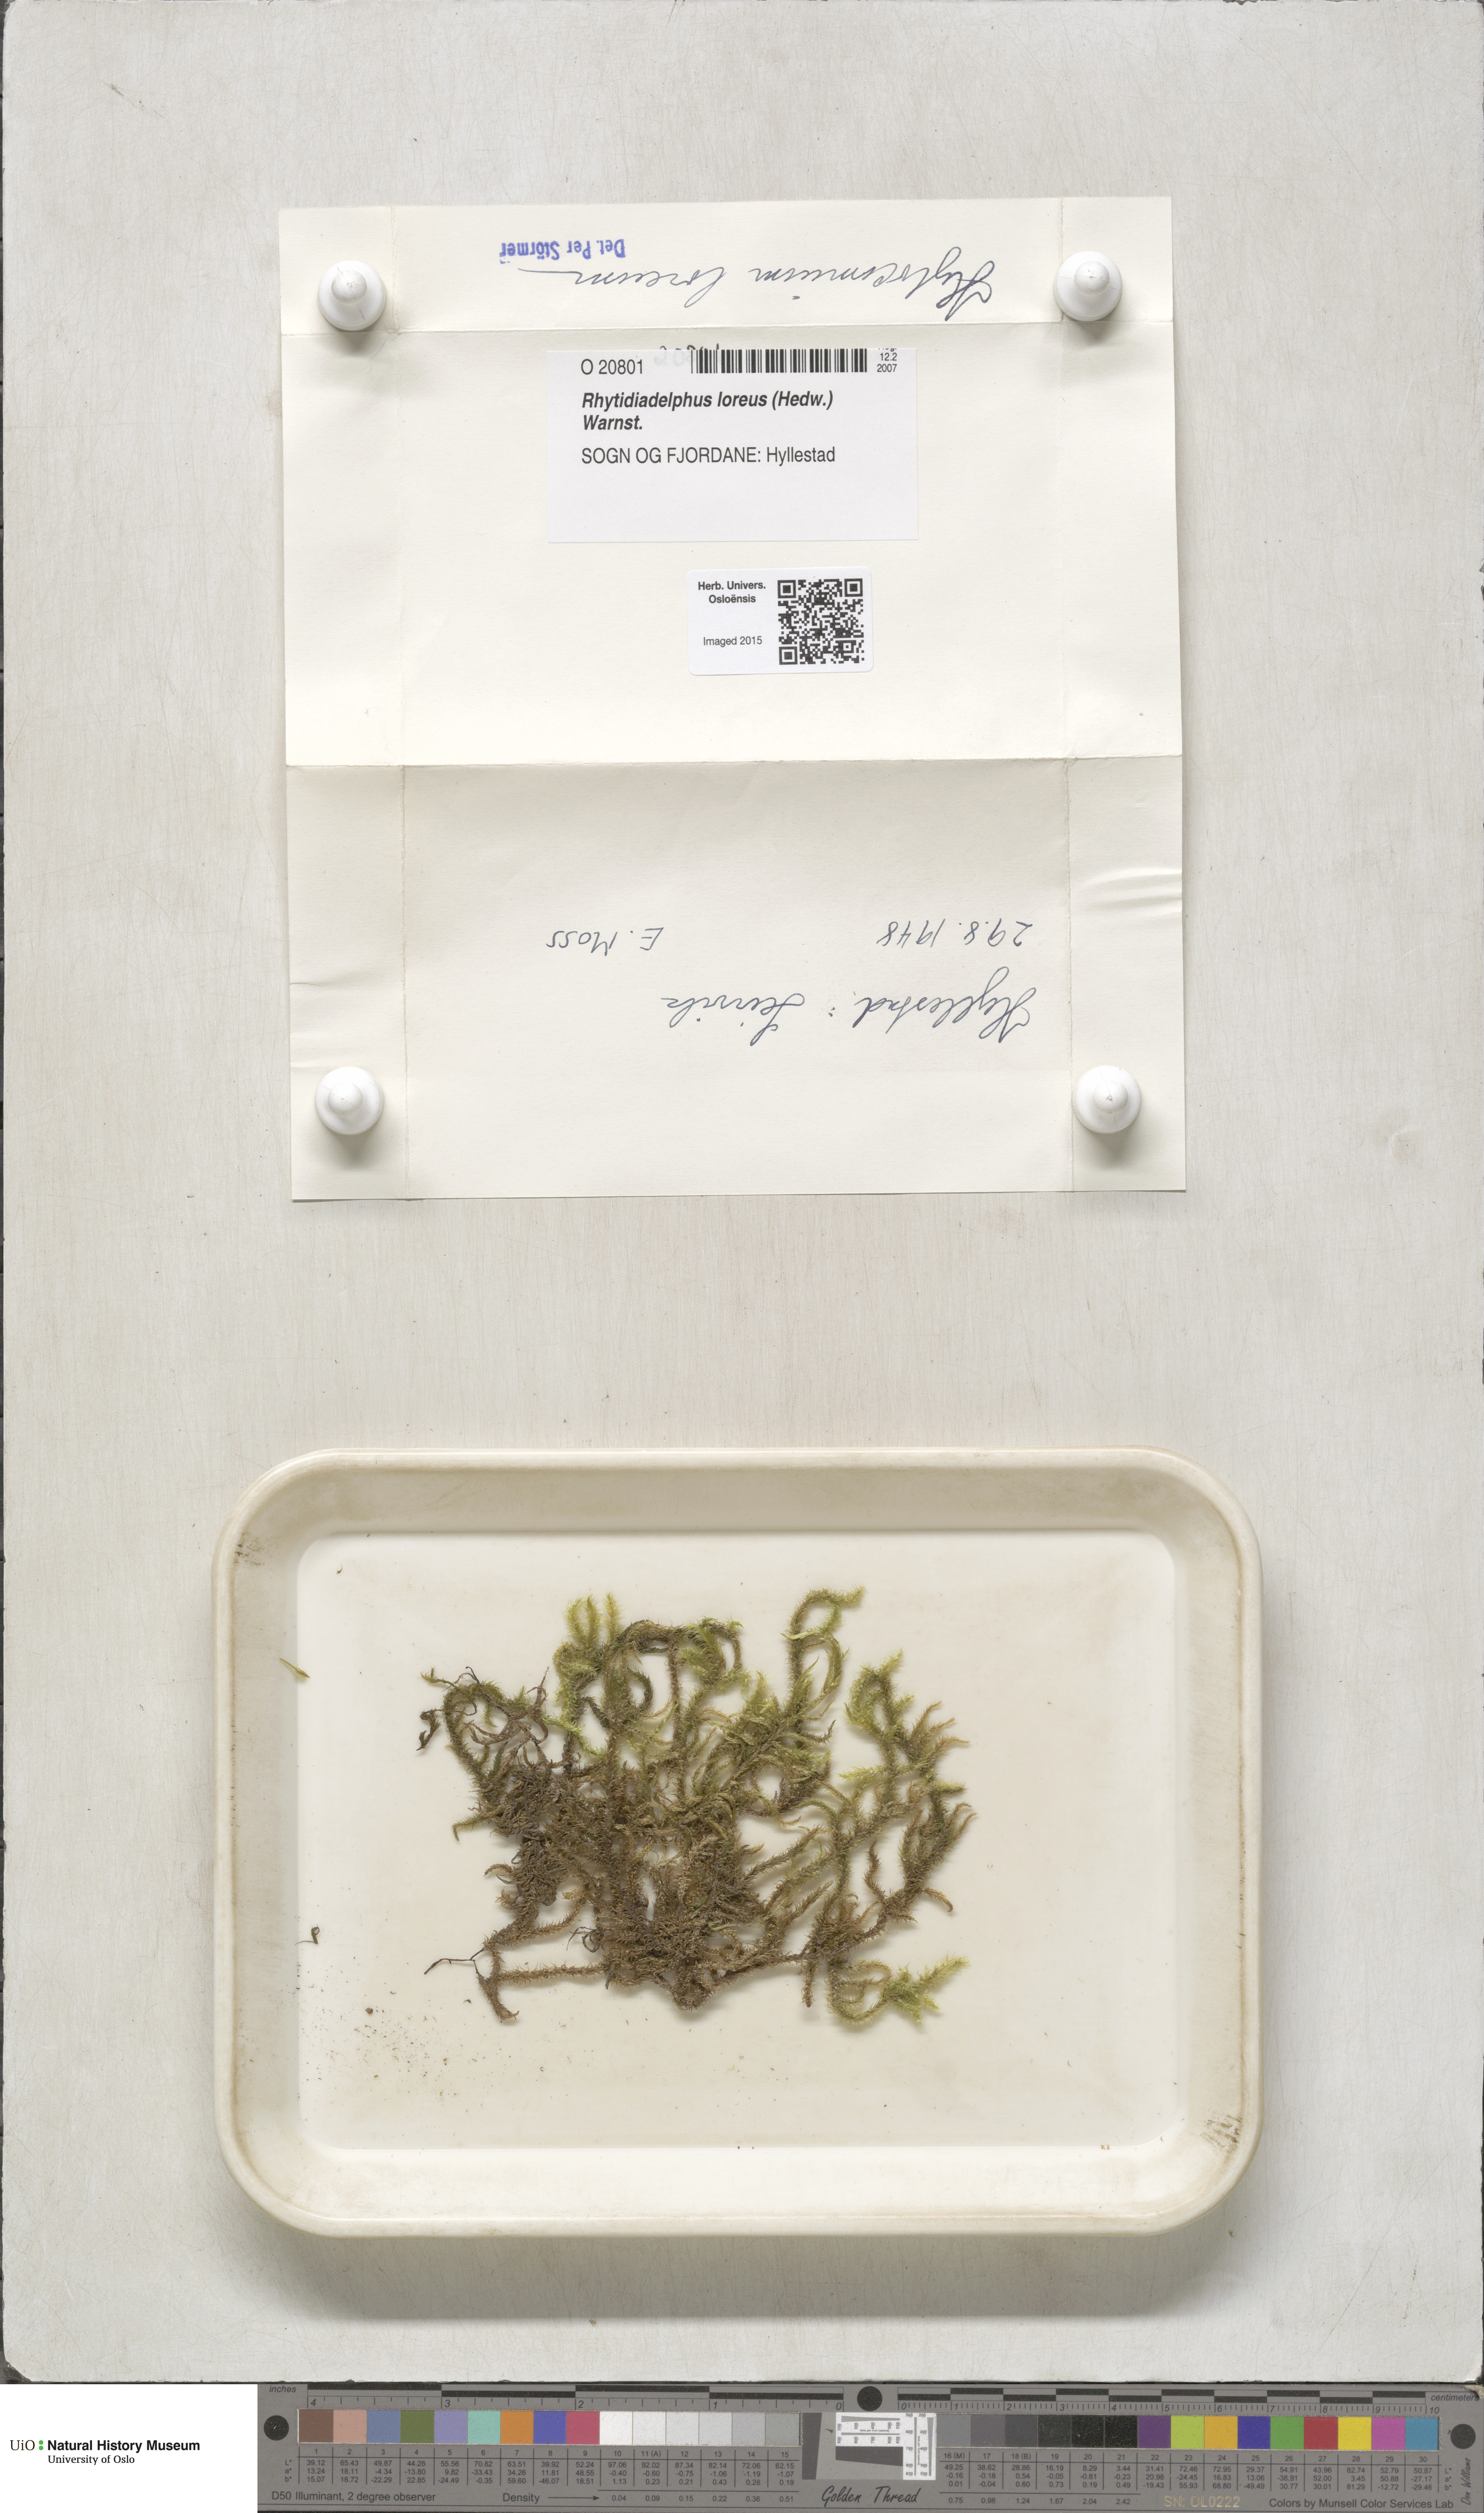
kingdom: Plantae
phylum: Bryophyta
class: Bryopsida
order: Hypnales
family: Hylocomiaceae
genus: Rhytidiadelphus
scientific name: Rhytidiadelphus loreus
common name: Lanky moss
